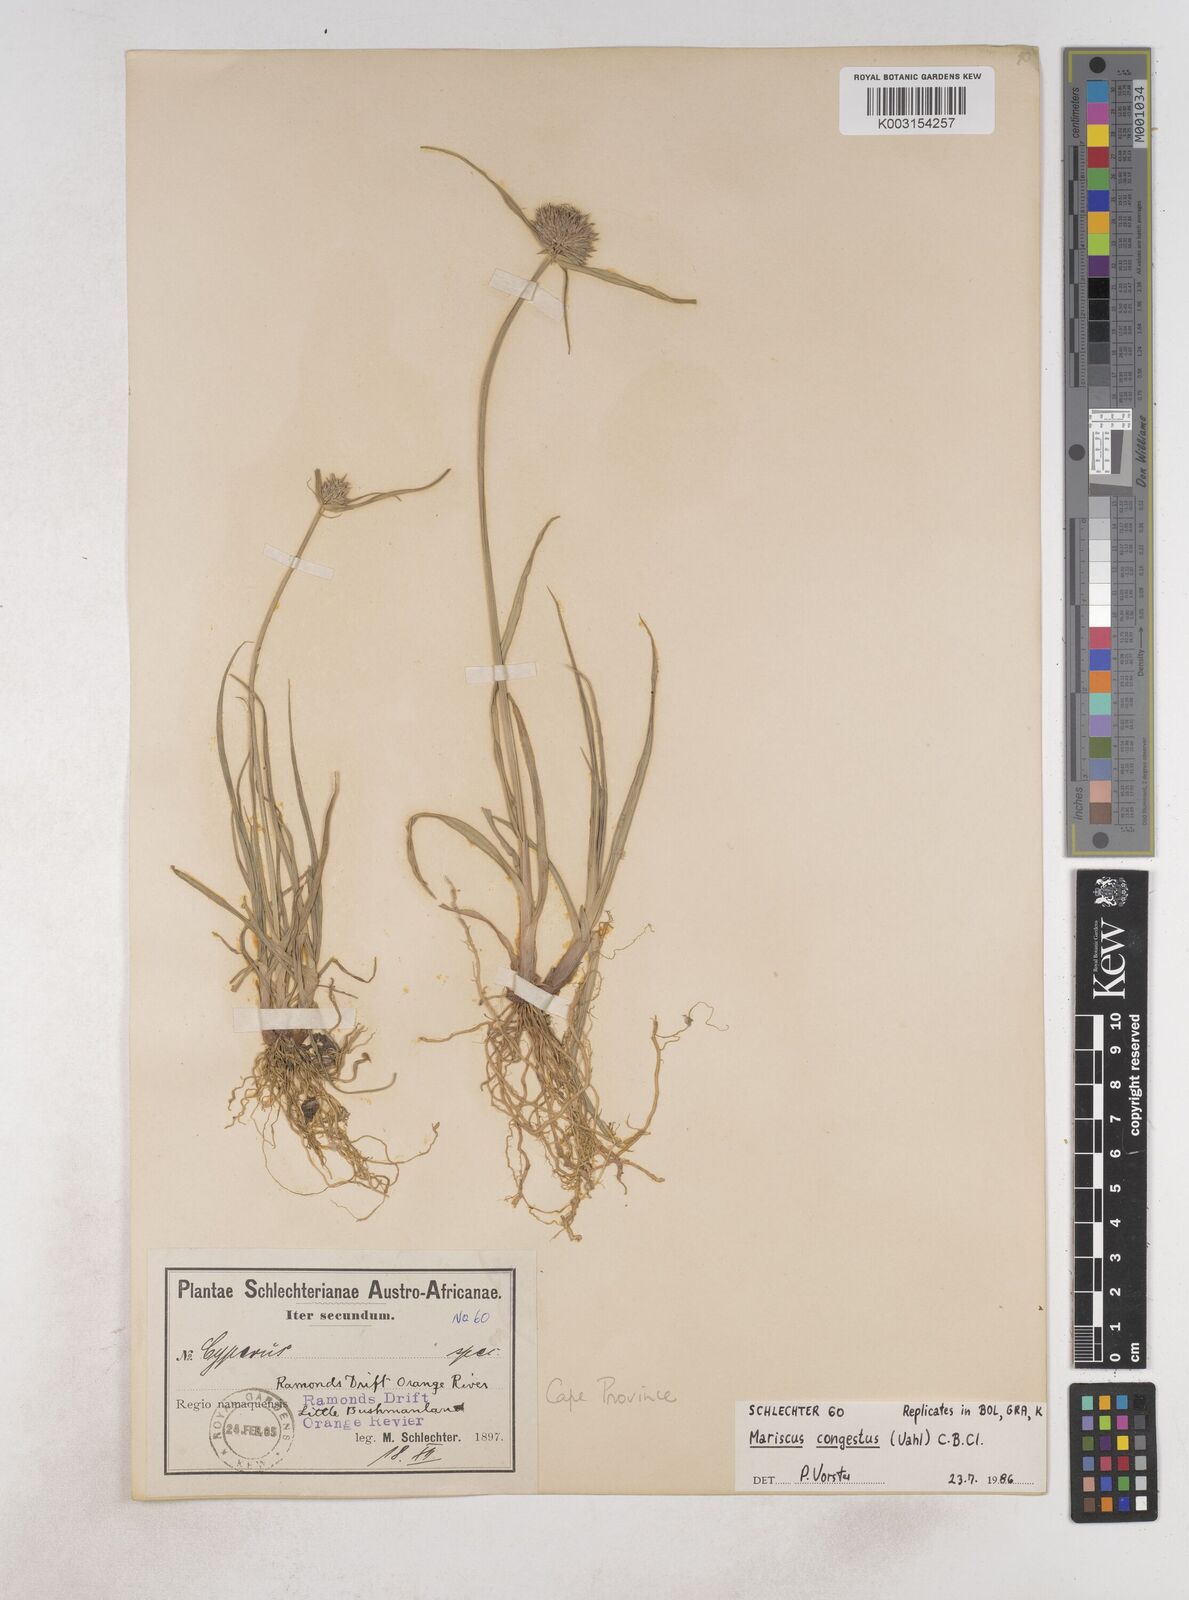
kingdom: Plantae
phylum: Tracheophyta
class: Liliopsida
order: Poales
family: Cyperaceae
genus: Cyperus
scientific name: Cyperus congestus
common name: Dense flat sedge
